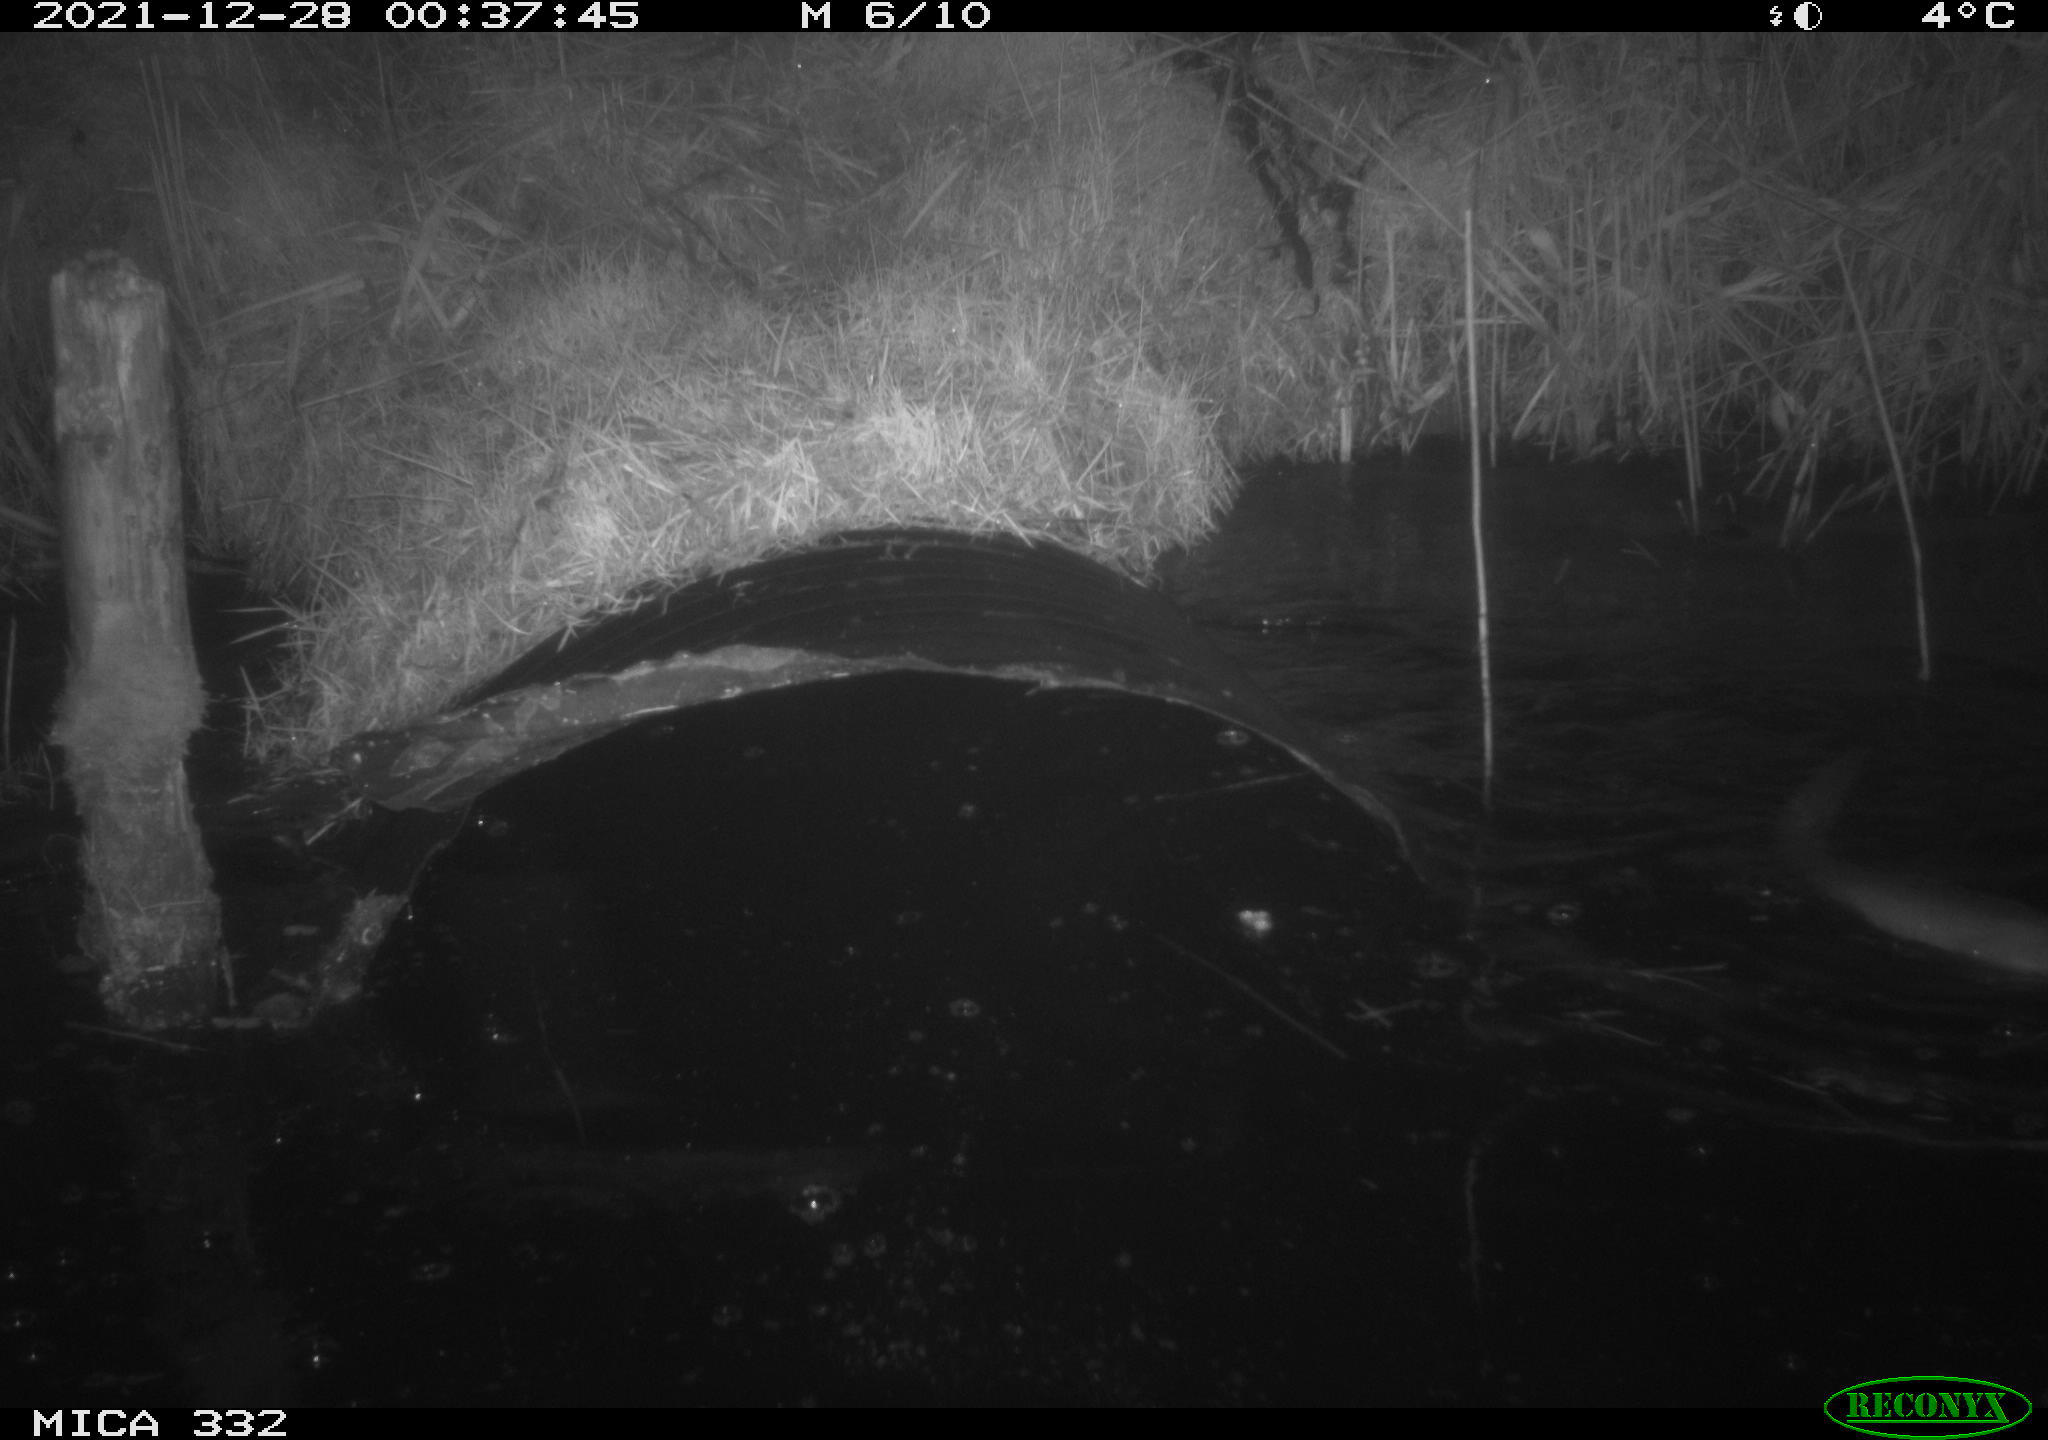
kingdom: Animalia
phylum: Chordata
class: Mammalia
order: Carnivora
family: Mustelidae
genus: Lutra
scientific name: Lutra lutra
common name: European otter
